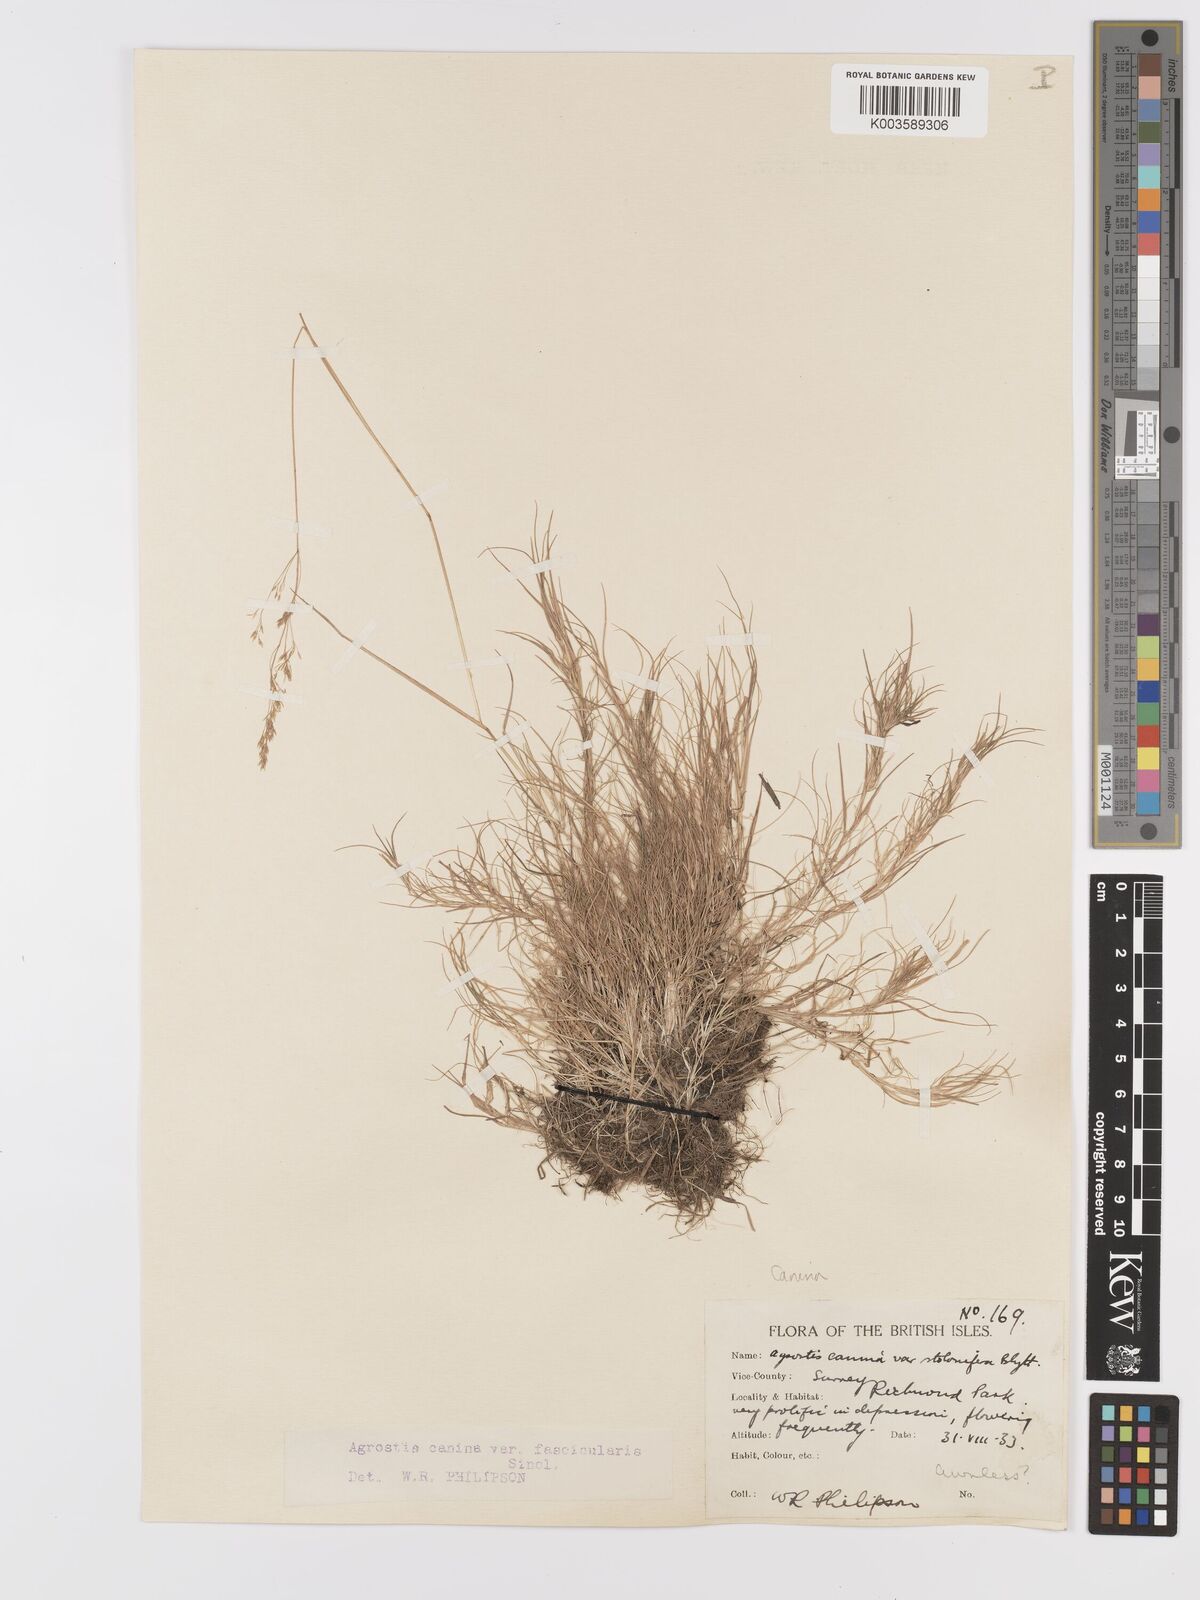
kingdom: Plantae
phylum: Tracheophyta
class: Liliopsida
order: Poales
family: Poaceae
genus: Agrostis
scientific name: Agrostis canina
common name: Velvet bent
